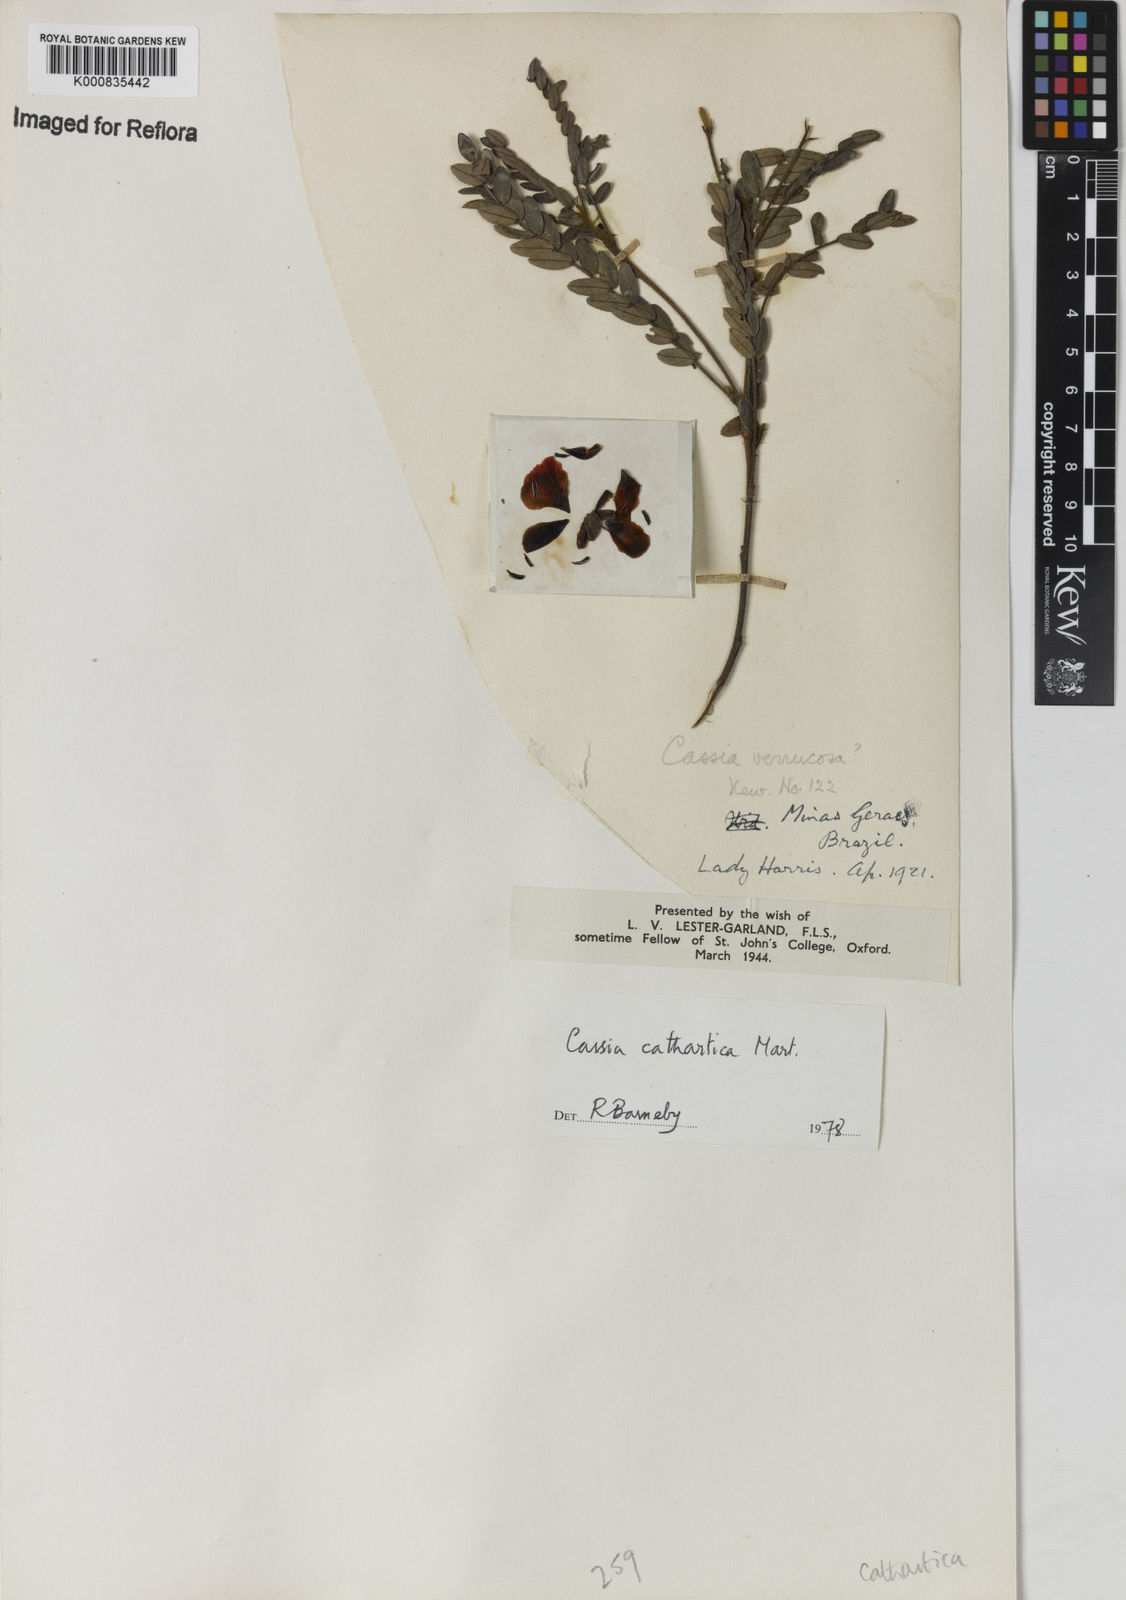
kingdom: Plantae
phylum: Tracheophyta
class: Magnoliopsida
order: Fabales
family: Fabaceae
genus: Chamaecrista
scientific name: Chamaecrista cathartica
